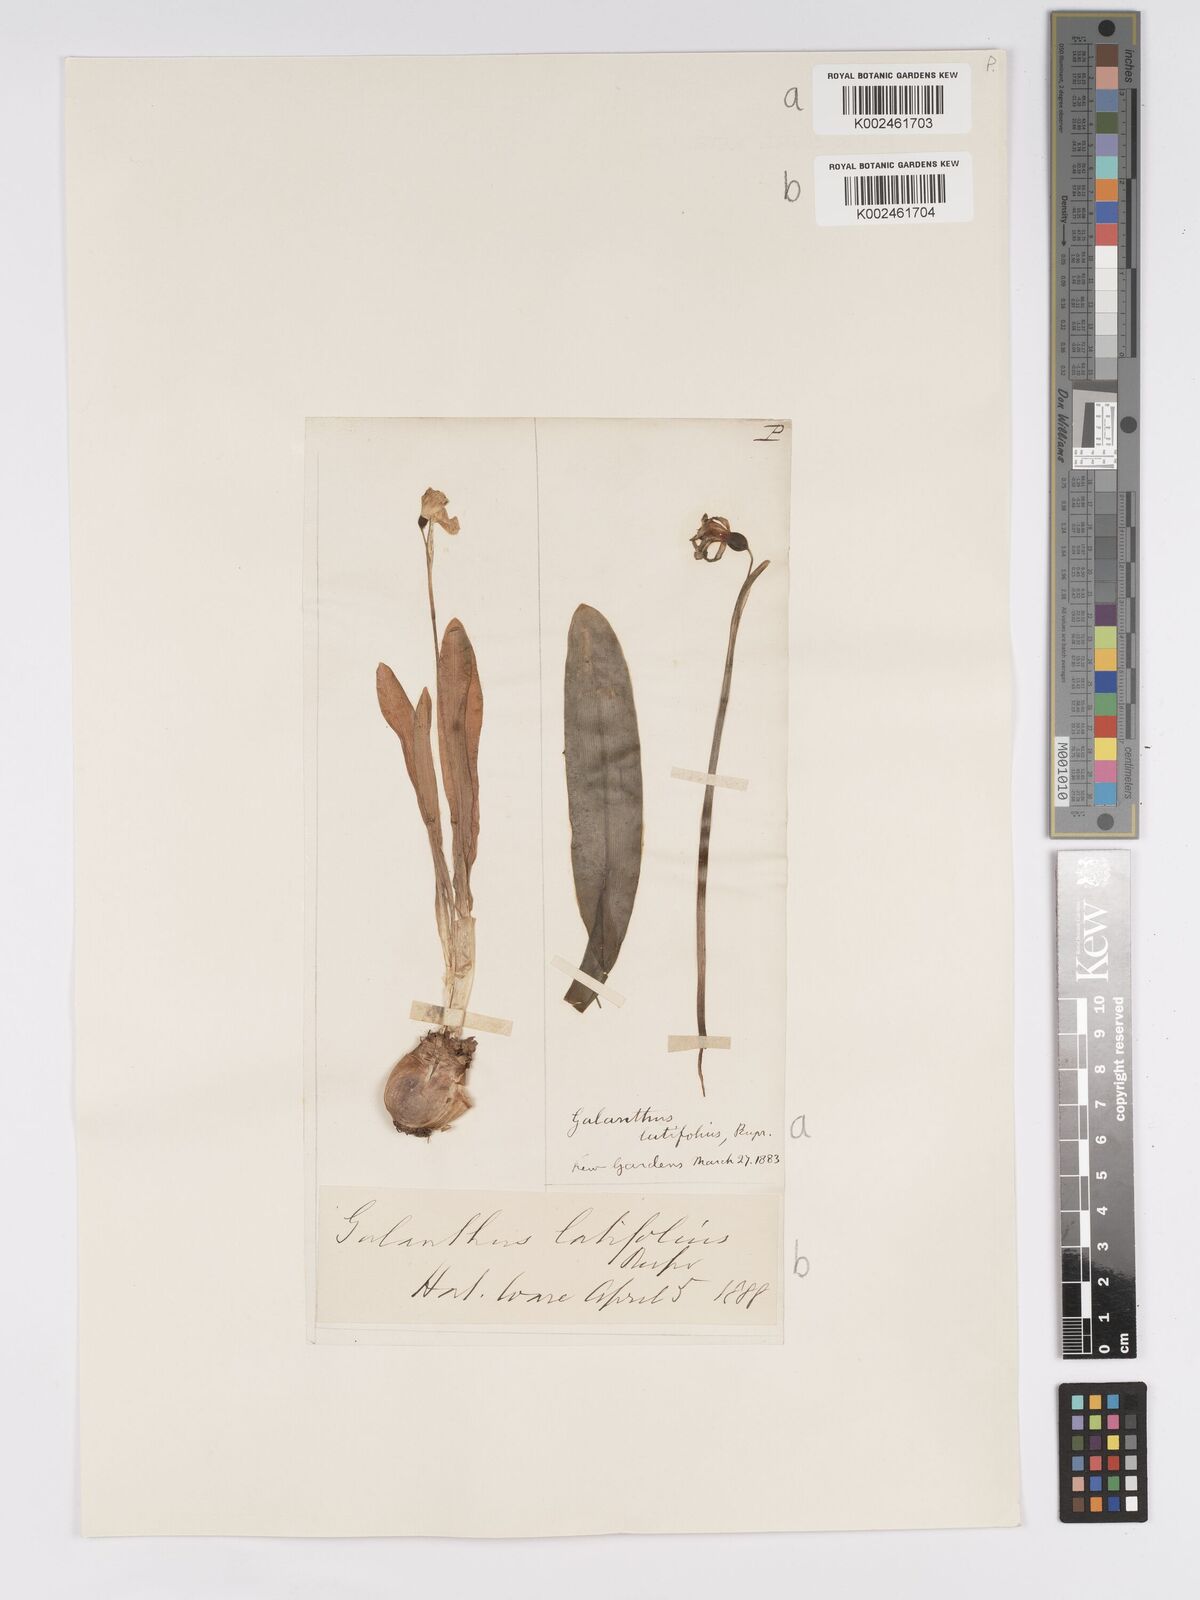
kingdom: Plantae
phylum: Tracheophyta
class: Liliopsida
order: Asparagales
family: Amaryllidaceae
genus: Galanthus
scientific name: Galanthus
